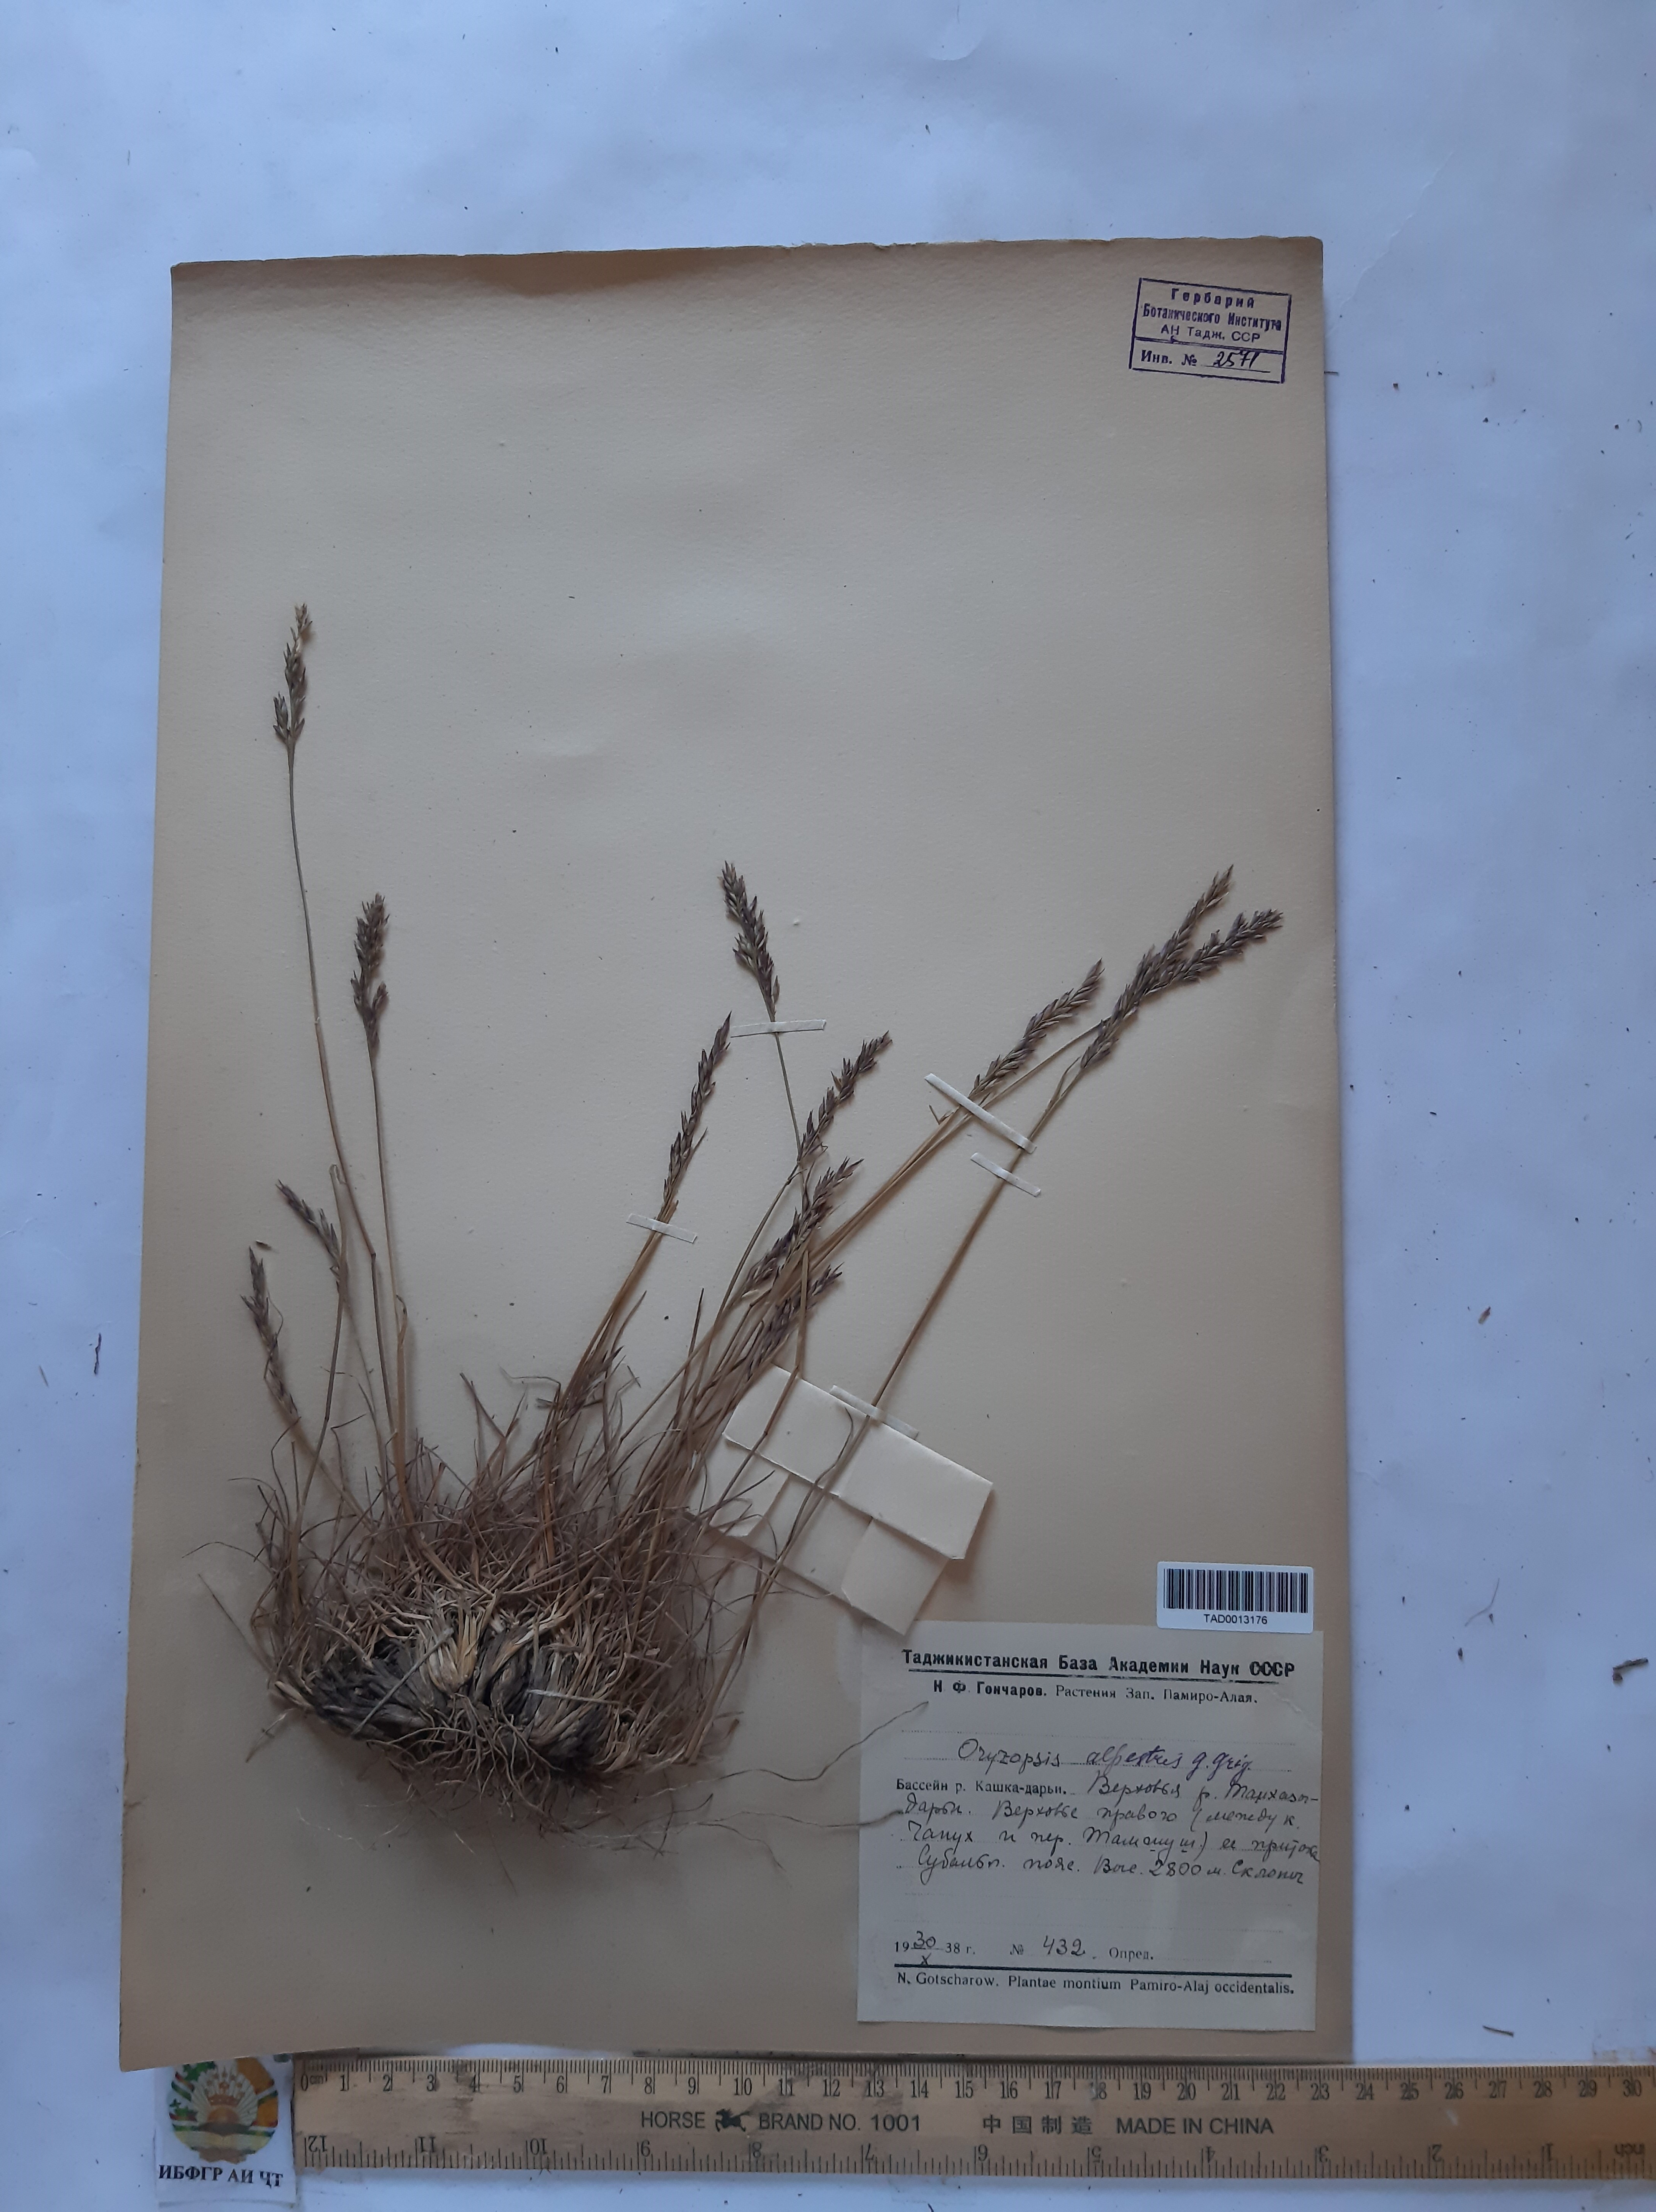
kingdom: Plantae
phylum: Tracheophyta
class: Liliopsida
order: Poales
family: Poaceae
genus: Piptatherum
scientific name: Piptatherum alpestre
